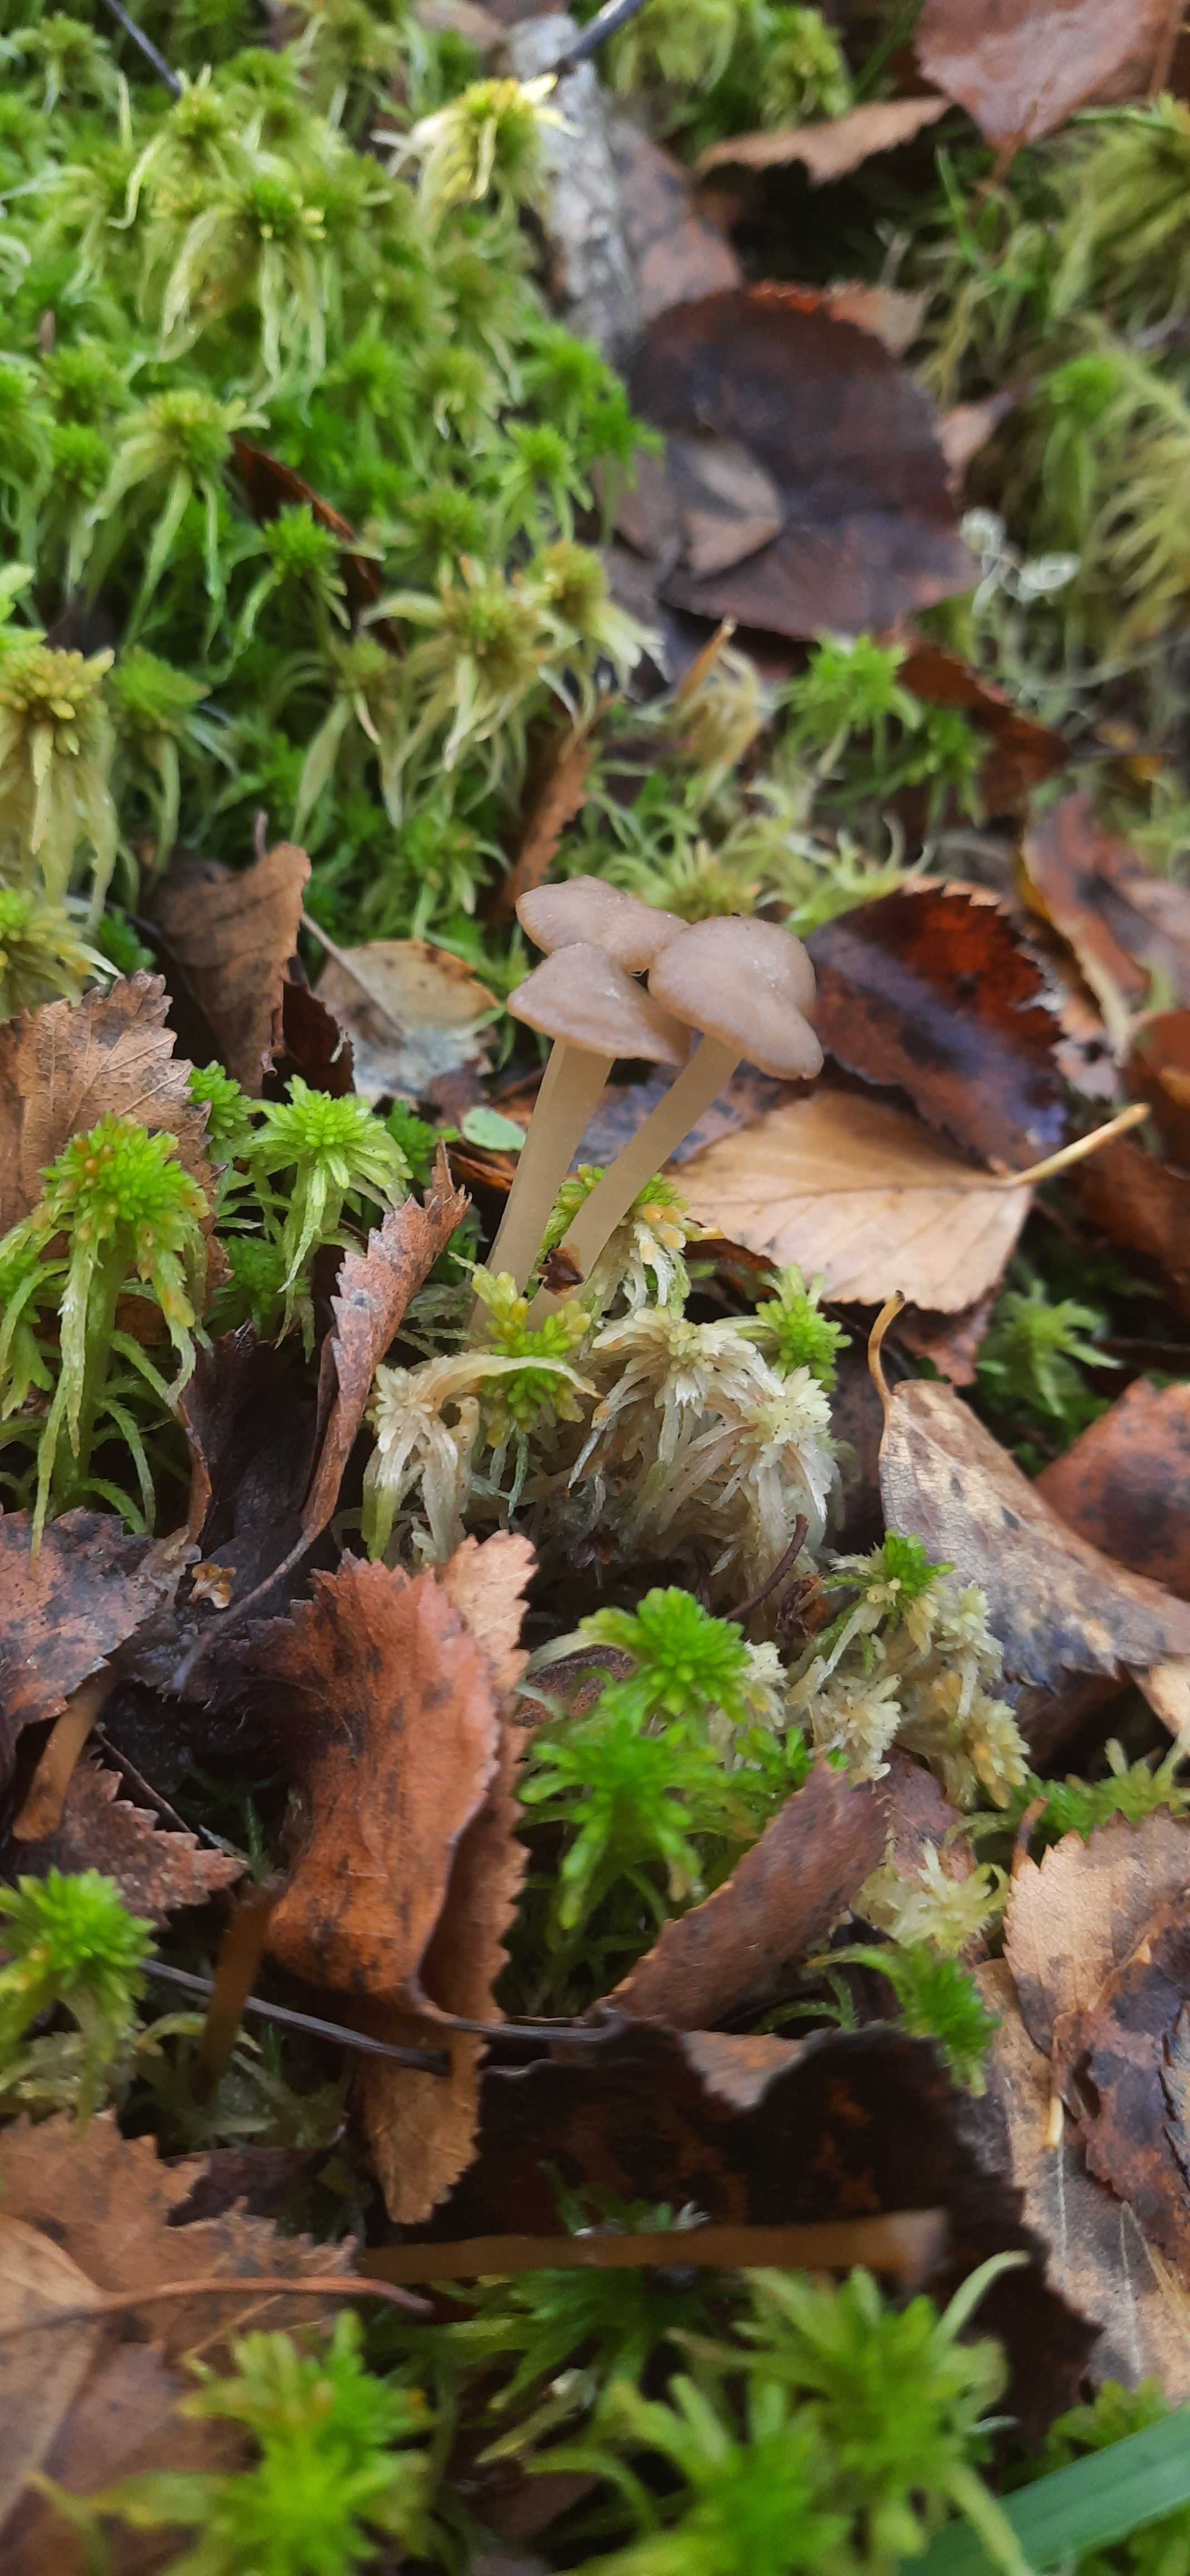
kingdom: Fungi
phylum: Basidiomycota
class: Agaricomycetes
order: Agaricales
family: Lyophyllaceae
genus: Sphagnurus
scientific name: Sphagnurus paluster
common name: tørvemos-gråblad
